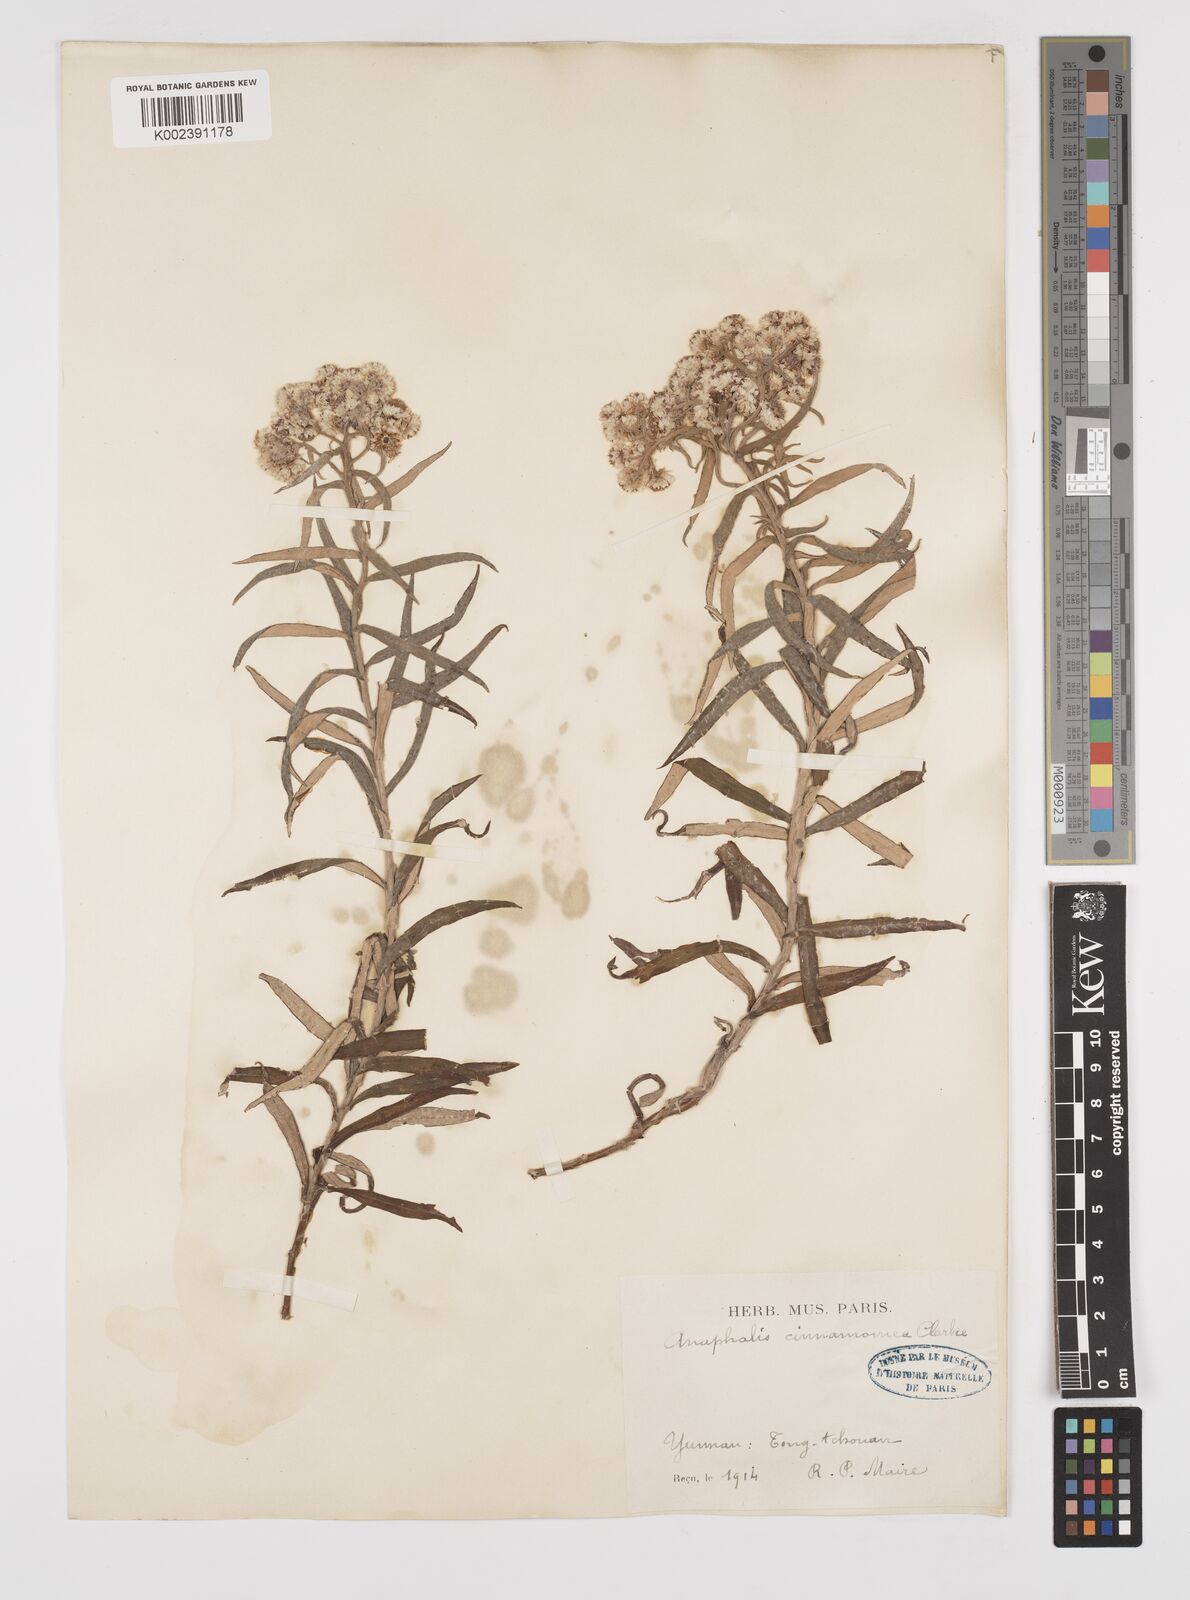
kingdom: Plantae
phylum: Tracheophyta
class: Magnoliopsida
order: Asterales
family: Asteraceae
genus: Anaphalis
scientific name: Anaphalis margaritacea
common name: Pearly everlasting
